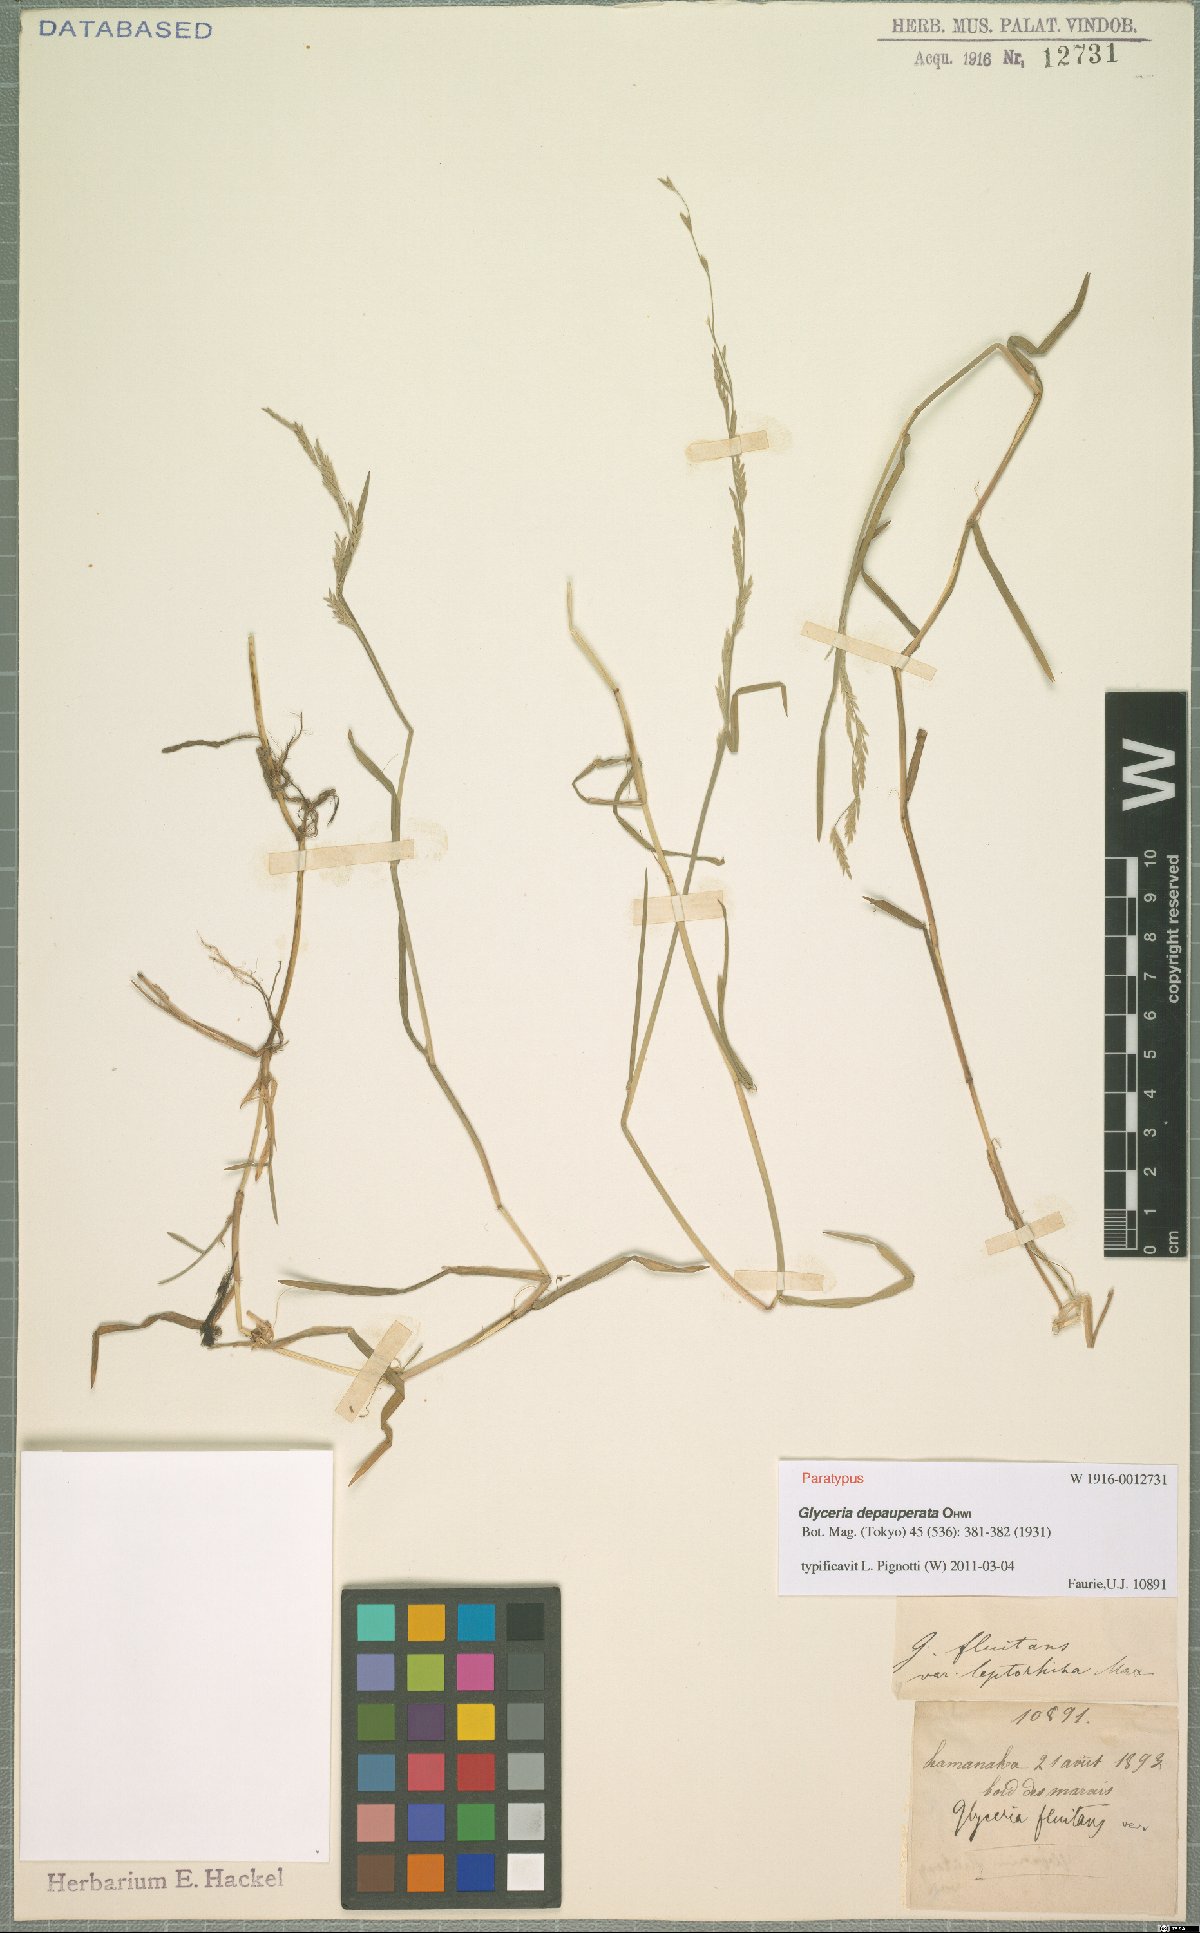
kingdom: Plantae
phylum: Tracheophyta
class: Liliopsida
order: Poales
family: Poaceae
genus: Glyceria
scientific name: Glyceria depauperata
